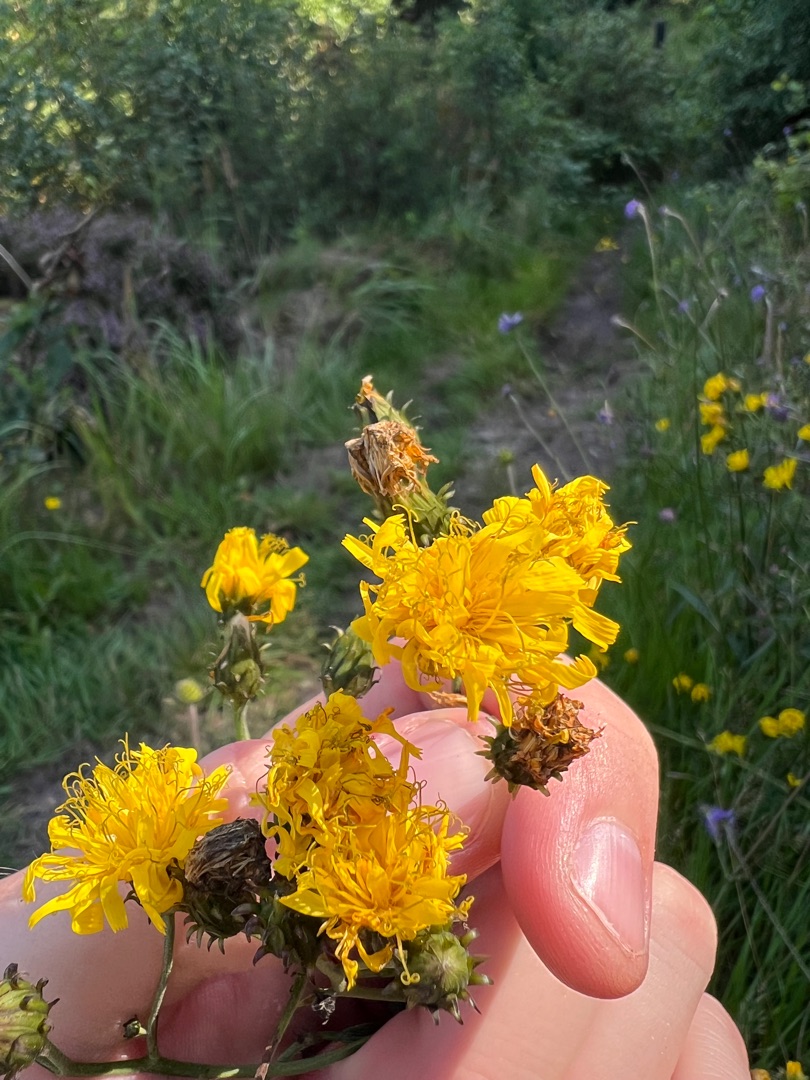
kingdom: Plantae
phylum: Tracheophyta
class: Magnoliopsida
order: Asterales
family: Asteraceae
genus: Hieracium
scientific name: Hieracium umbellatum
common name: Smalbladet høgeurt
